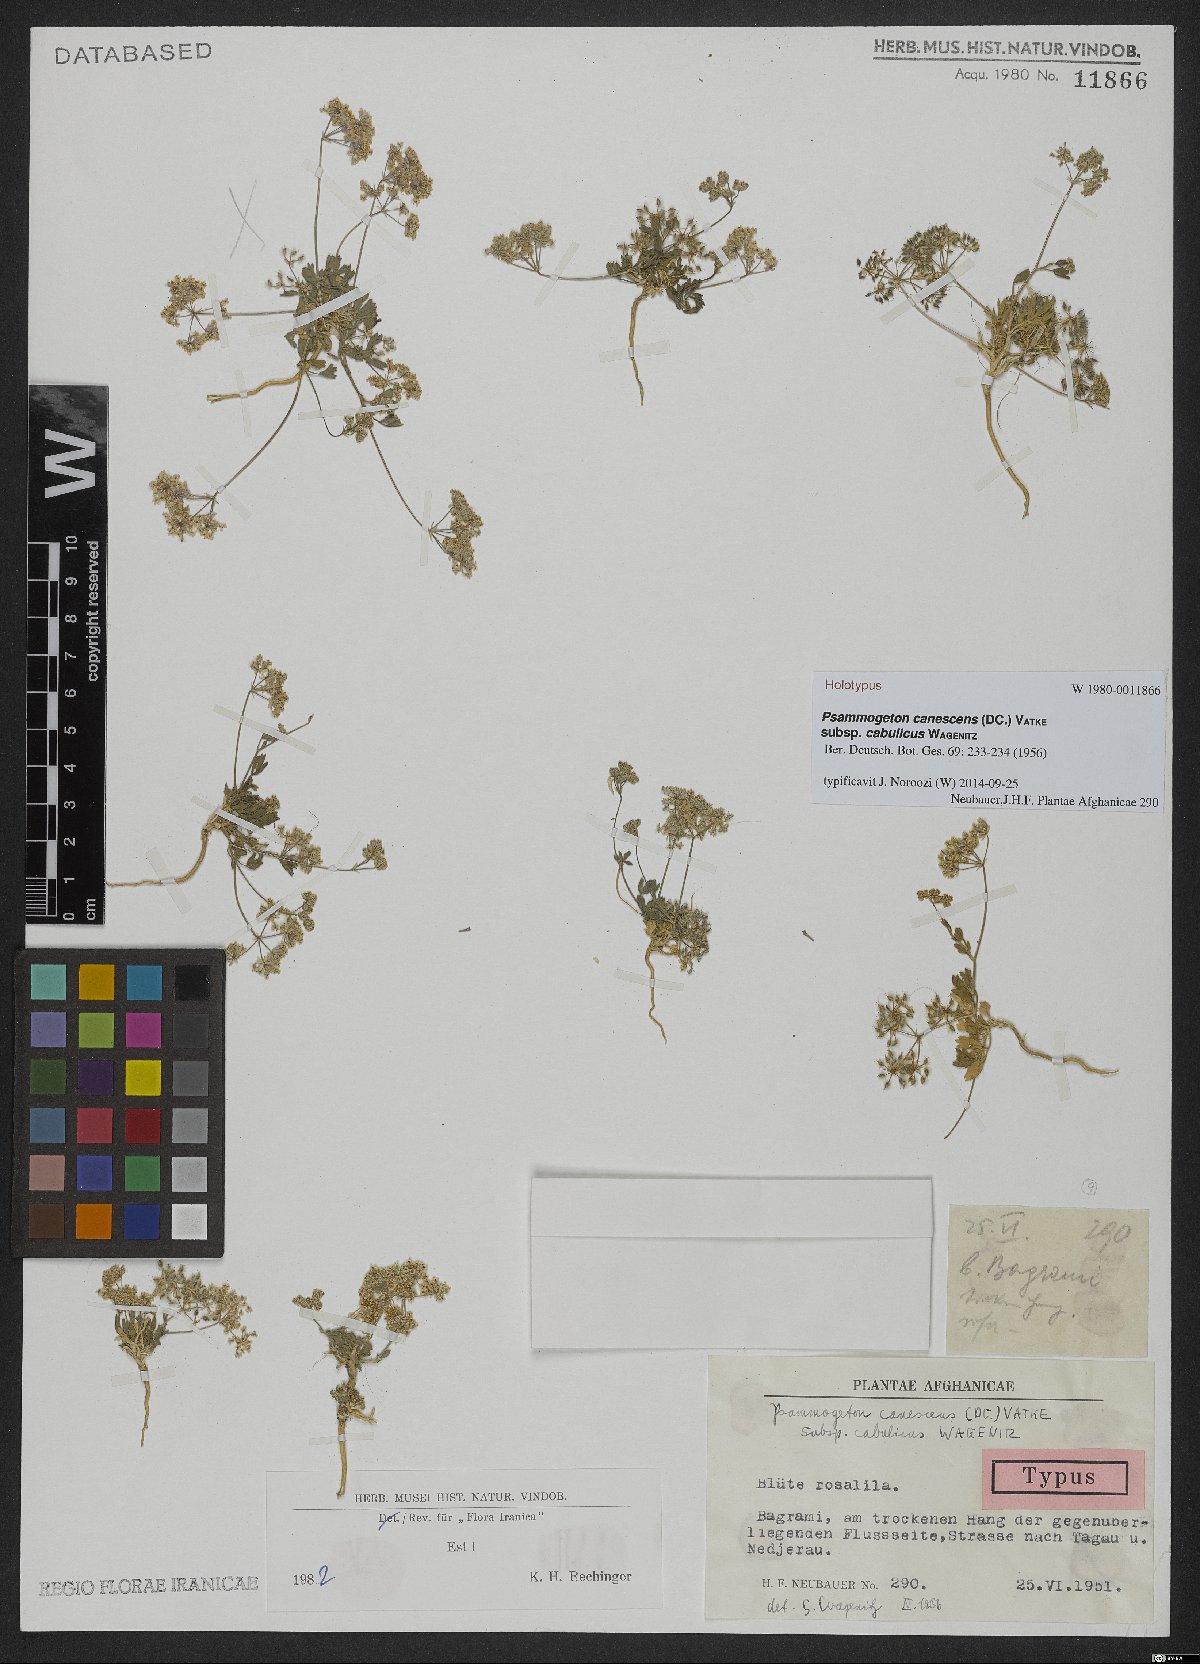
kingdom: Plantae
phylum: Tracheophyta
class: Magnoliopsida
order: Apiales
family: Apiaceae
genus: Psammogeton
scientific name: Psammogeton canescens
